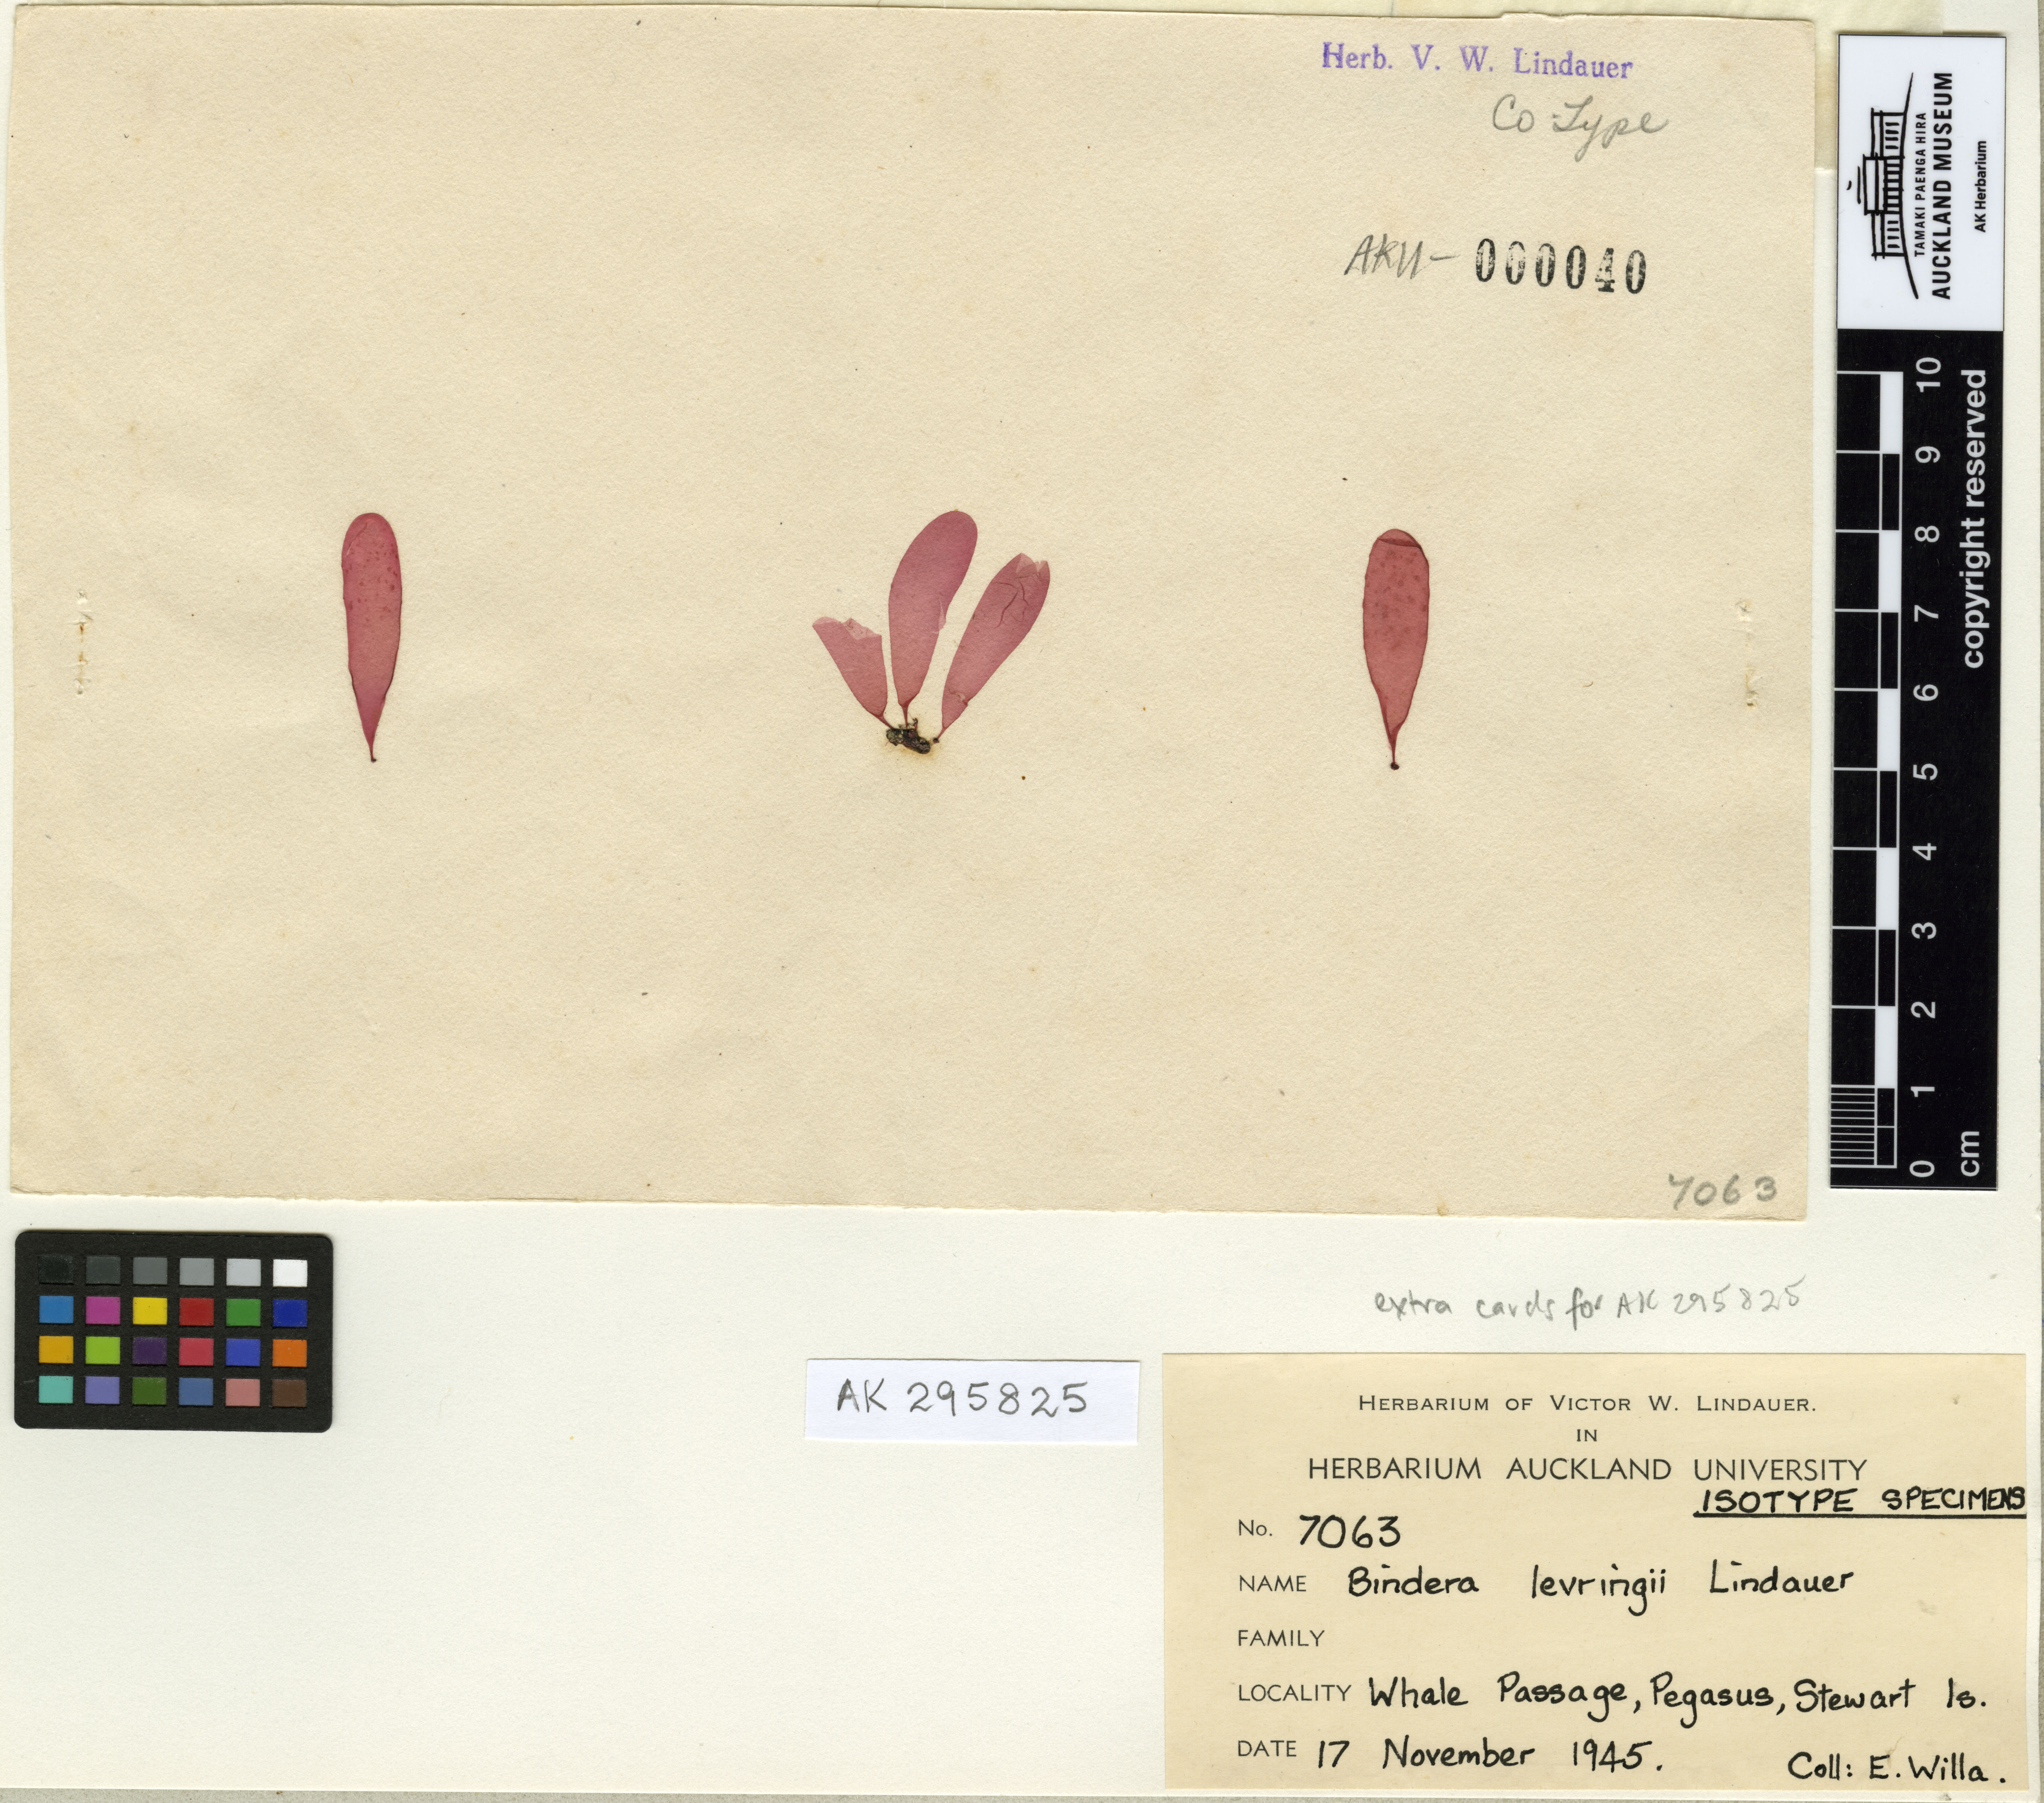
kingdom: Plantae
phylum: Rhodophyta
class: Florideophyceae
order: Rhodymeniales
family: Faucheaceae
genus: Webervanbossea
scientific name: Webervanbossea tasmanensis
